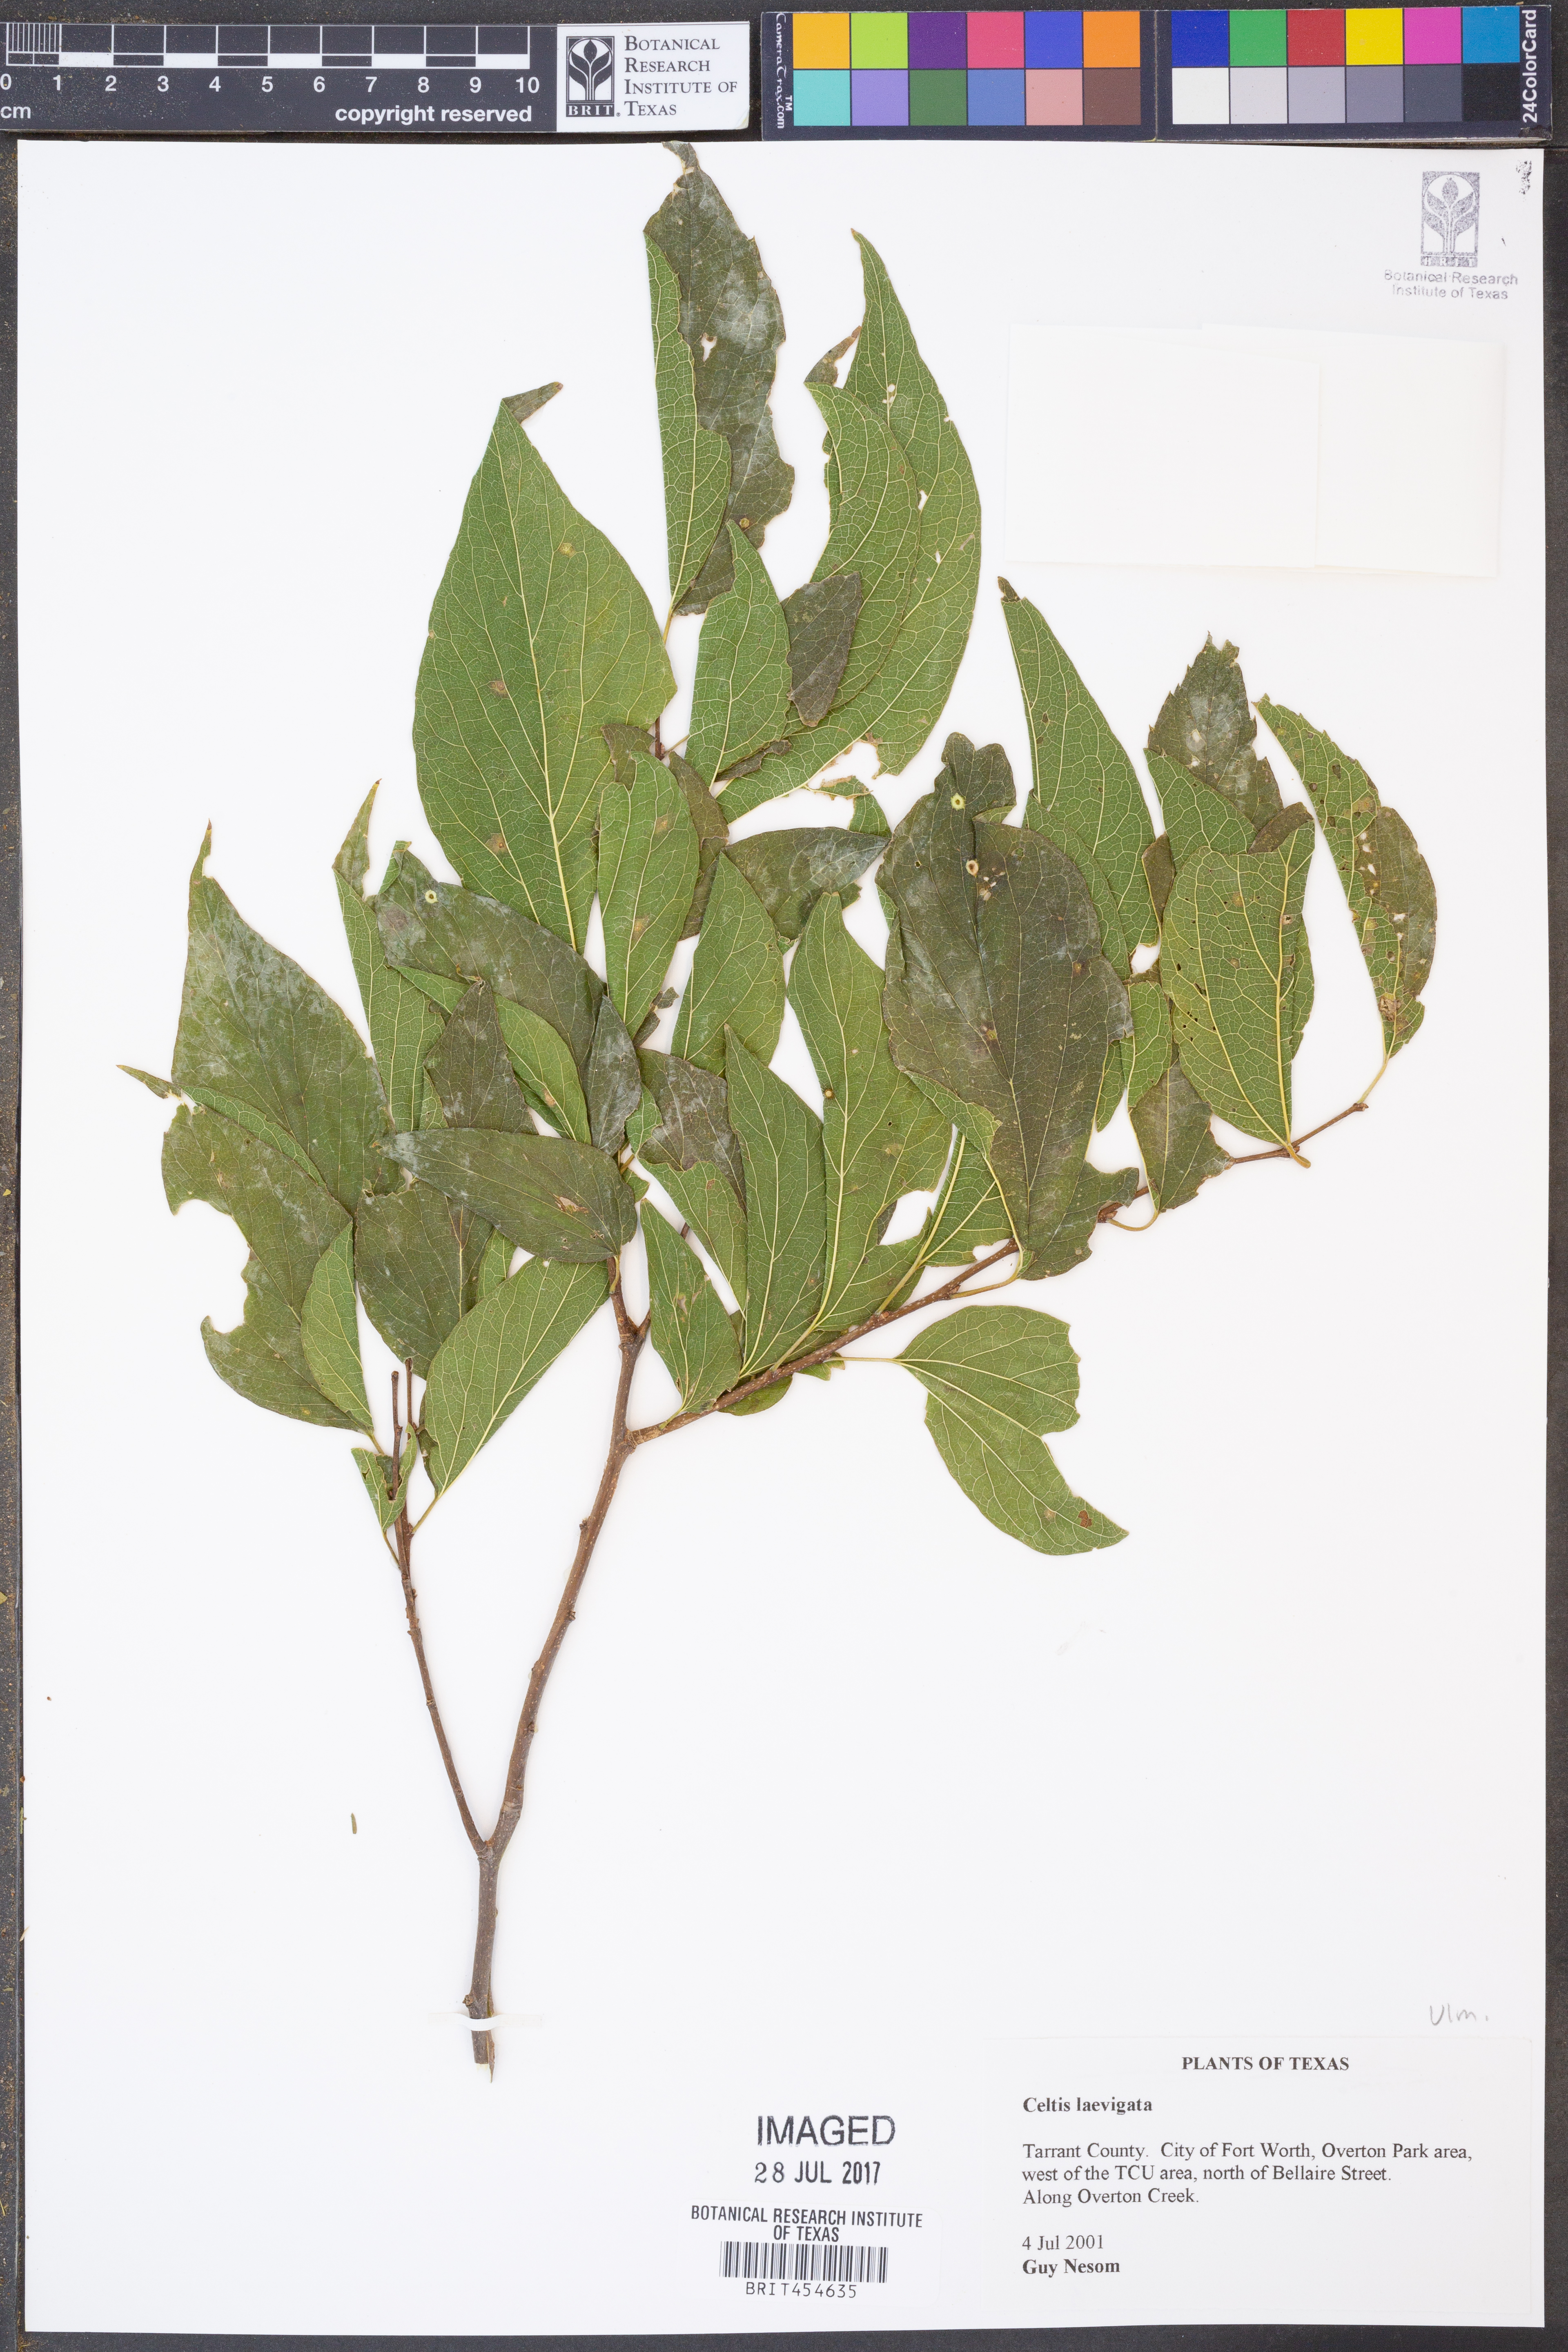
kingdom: Plantae
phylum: Tracheophyta
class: Magnoliopsida
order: Rosales
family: Cannabaceae
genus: Celtis
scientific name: Celtis laevigata
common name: Sugarberry
